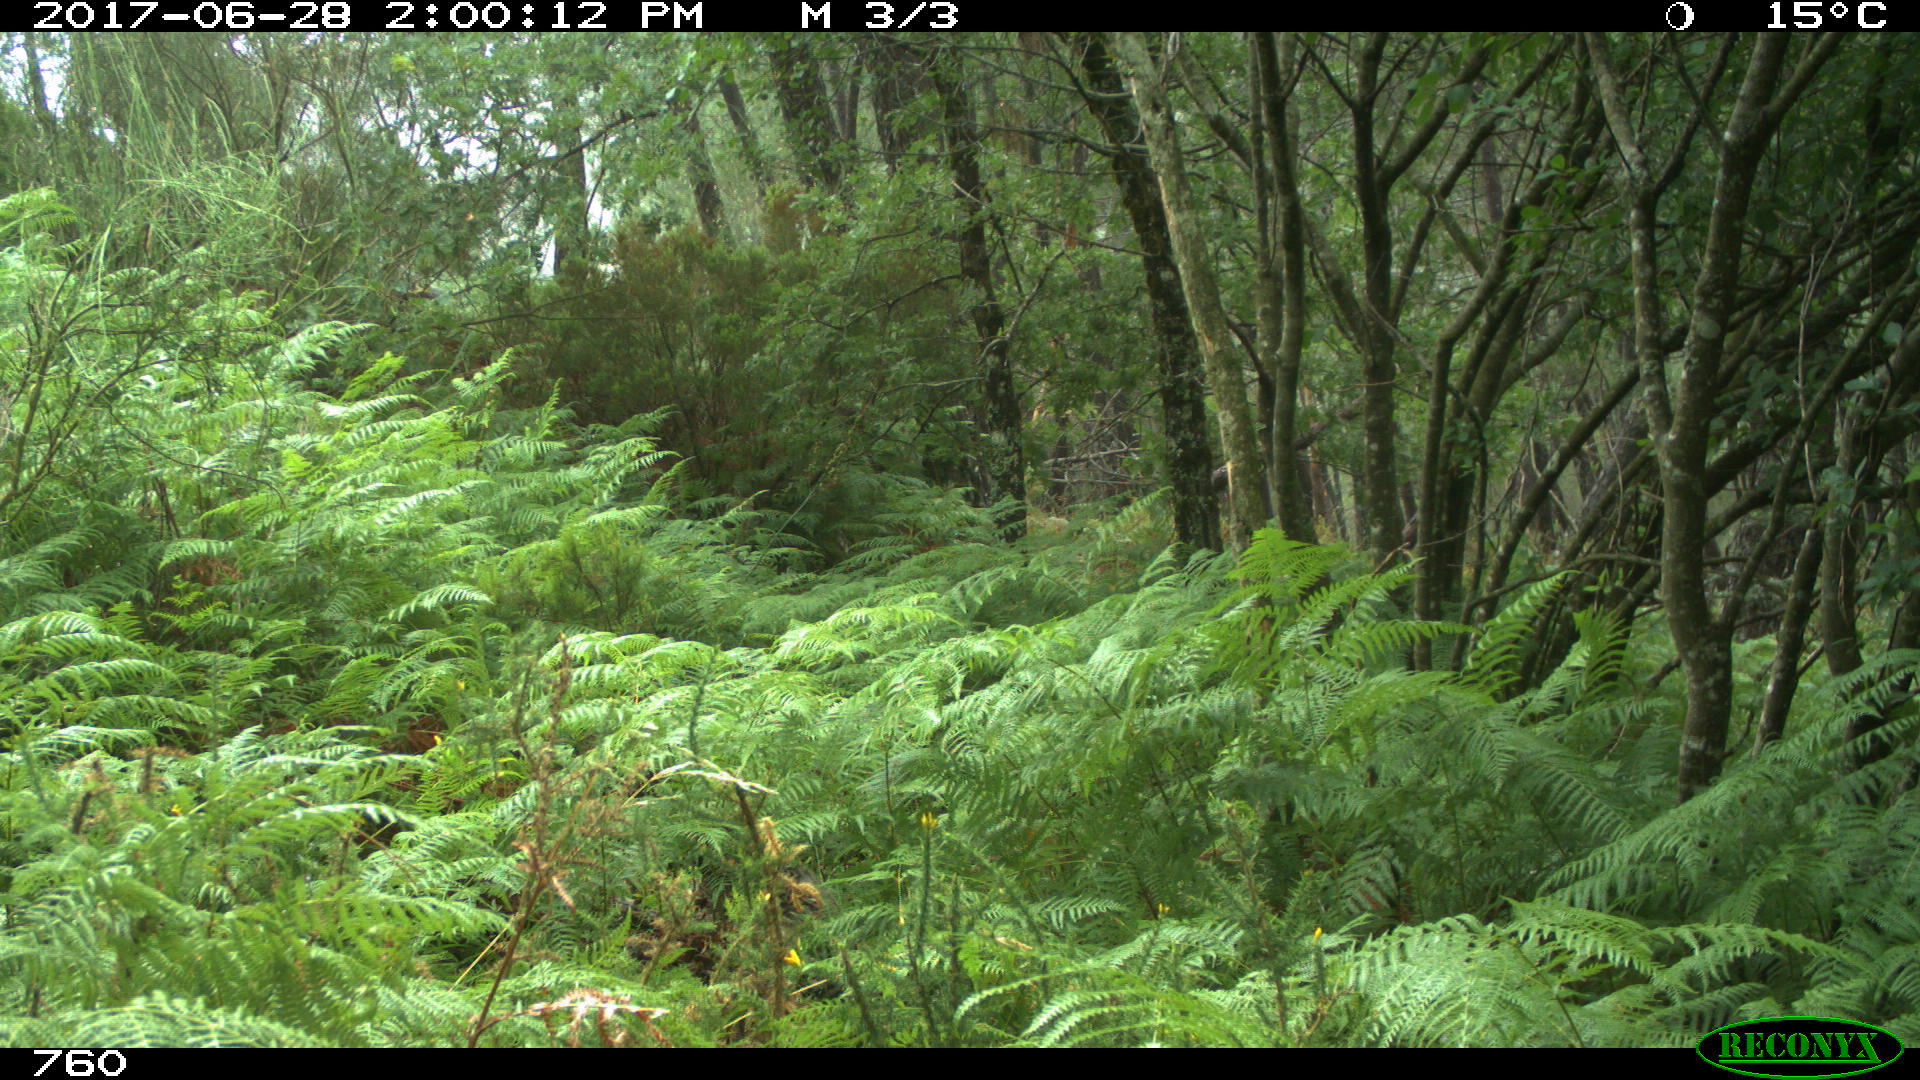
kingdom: Animalia
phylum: Chordata
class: Mammalia
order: Perissodactyla
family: Equidae
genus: Equus
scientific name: Equus caballus
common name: Horse
